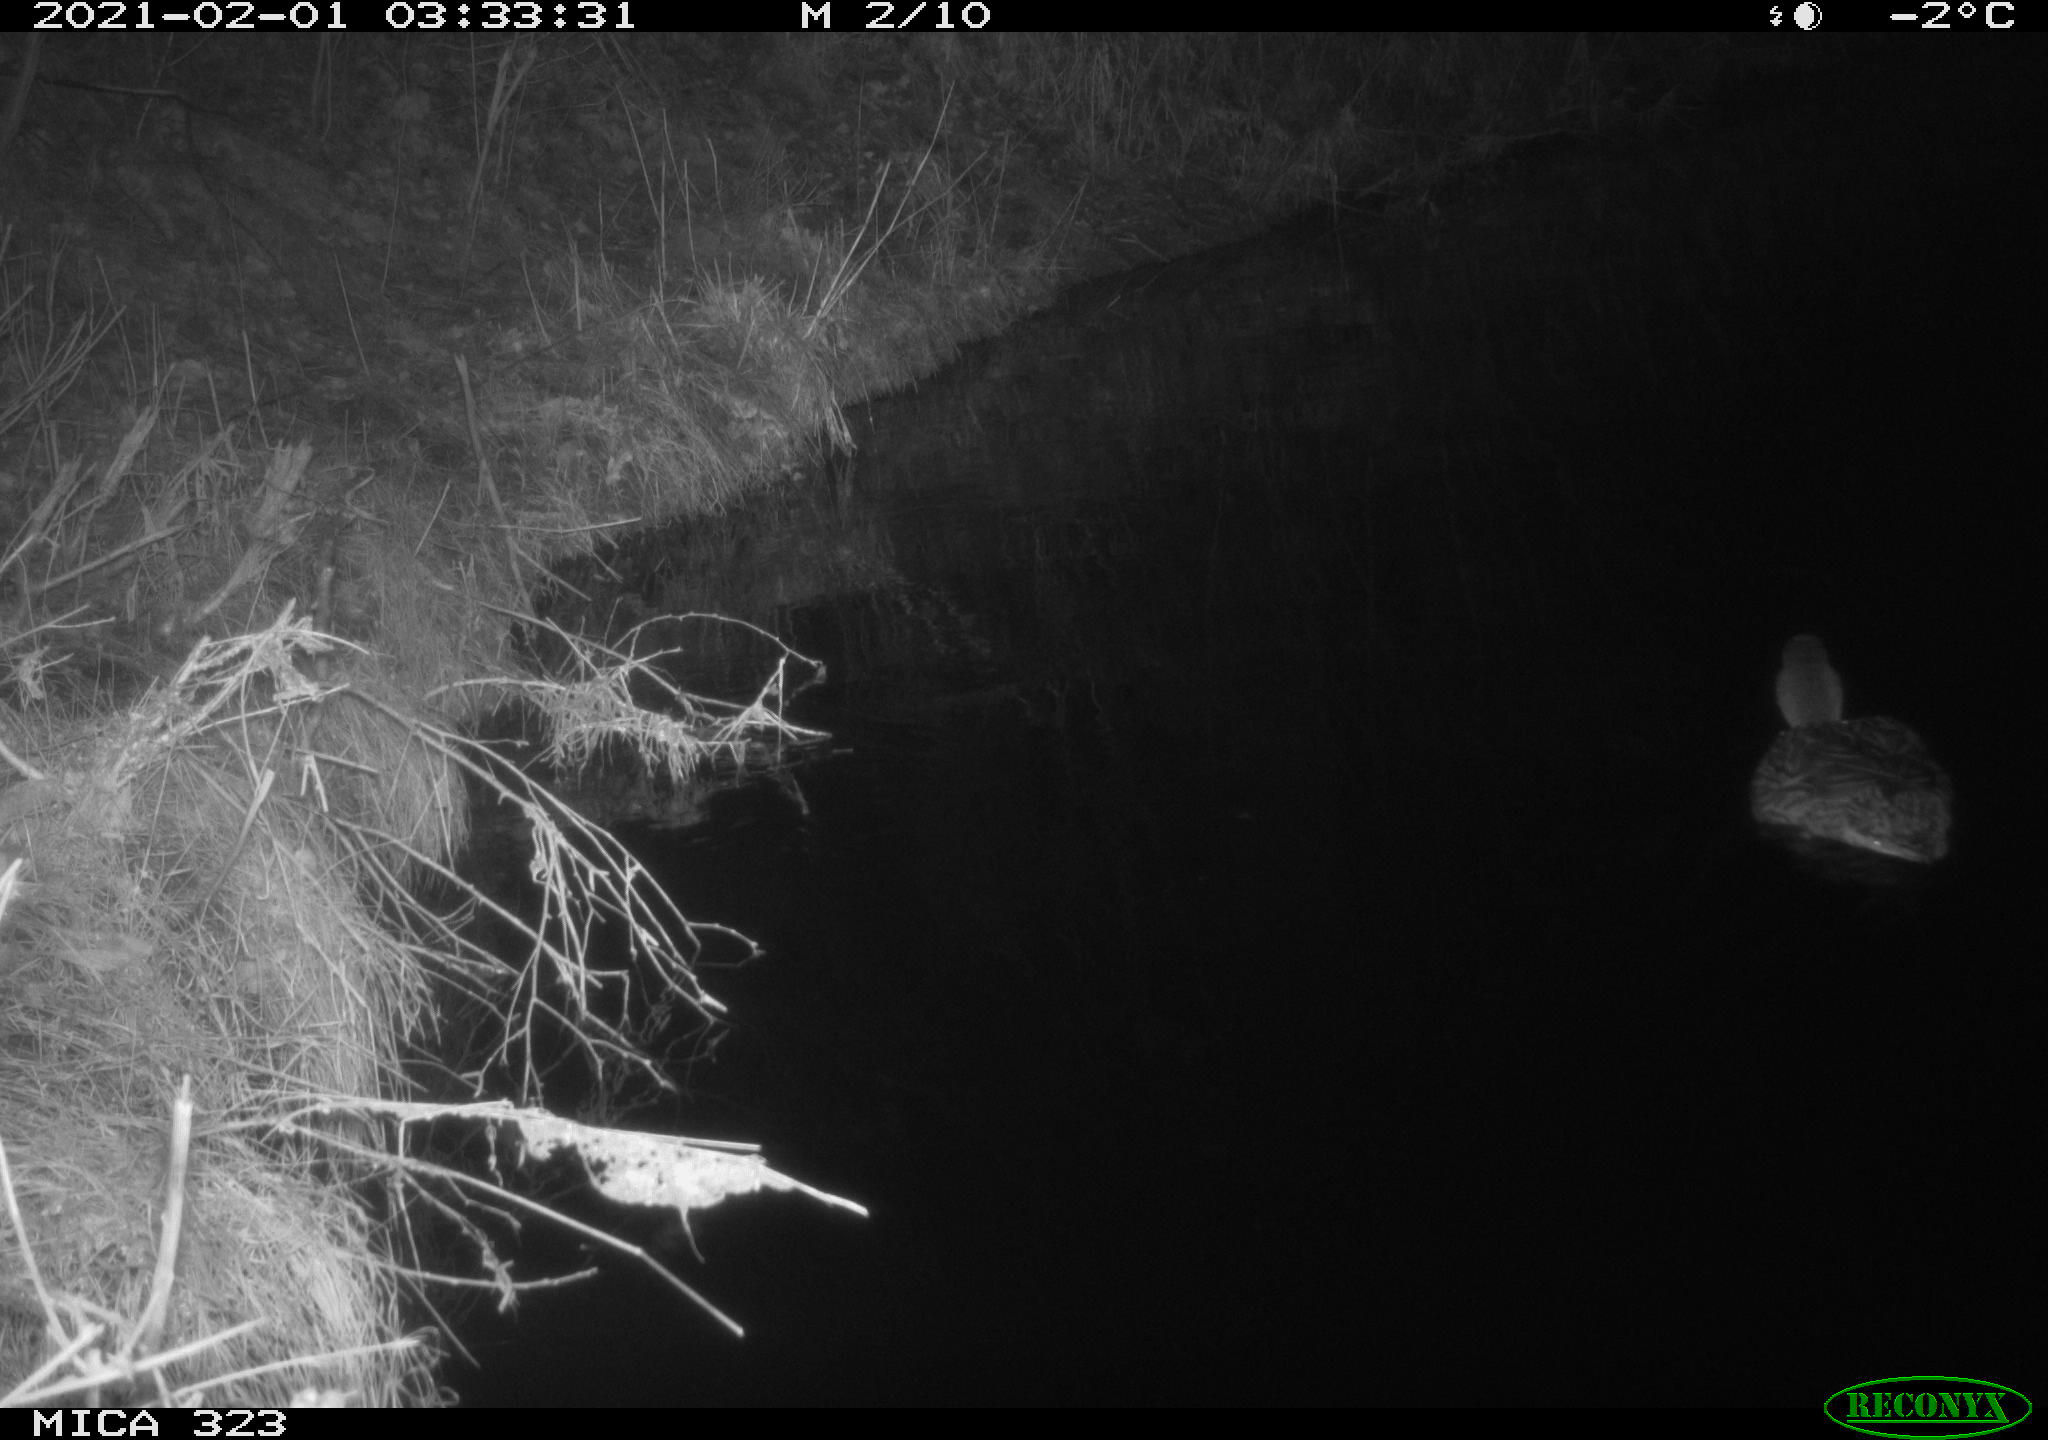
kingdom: Animalia
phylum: Chordata
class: Aves
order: Anseriformes
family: Anatidae
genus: Anas
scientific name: Anas platyrhynchos
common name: Mallard
